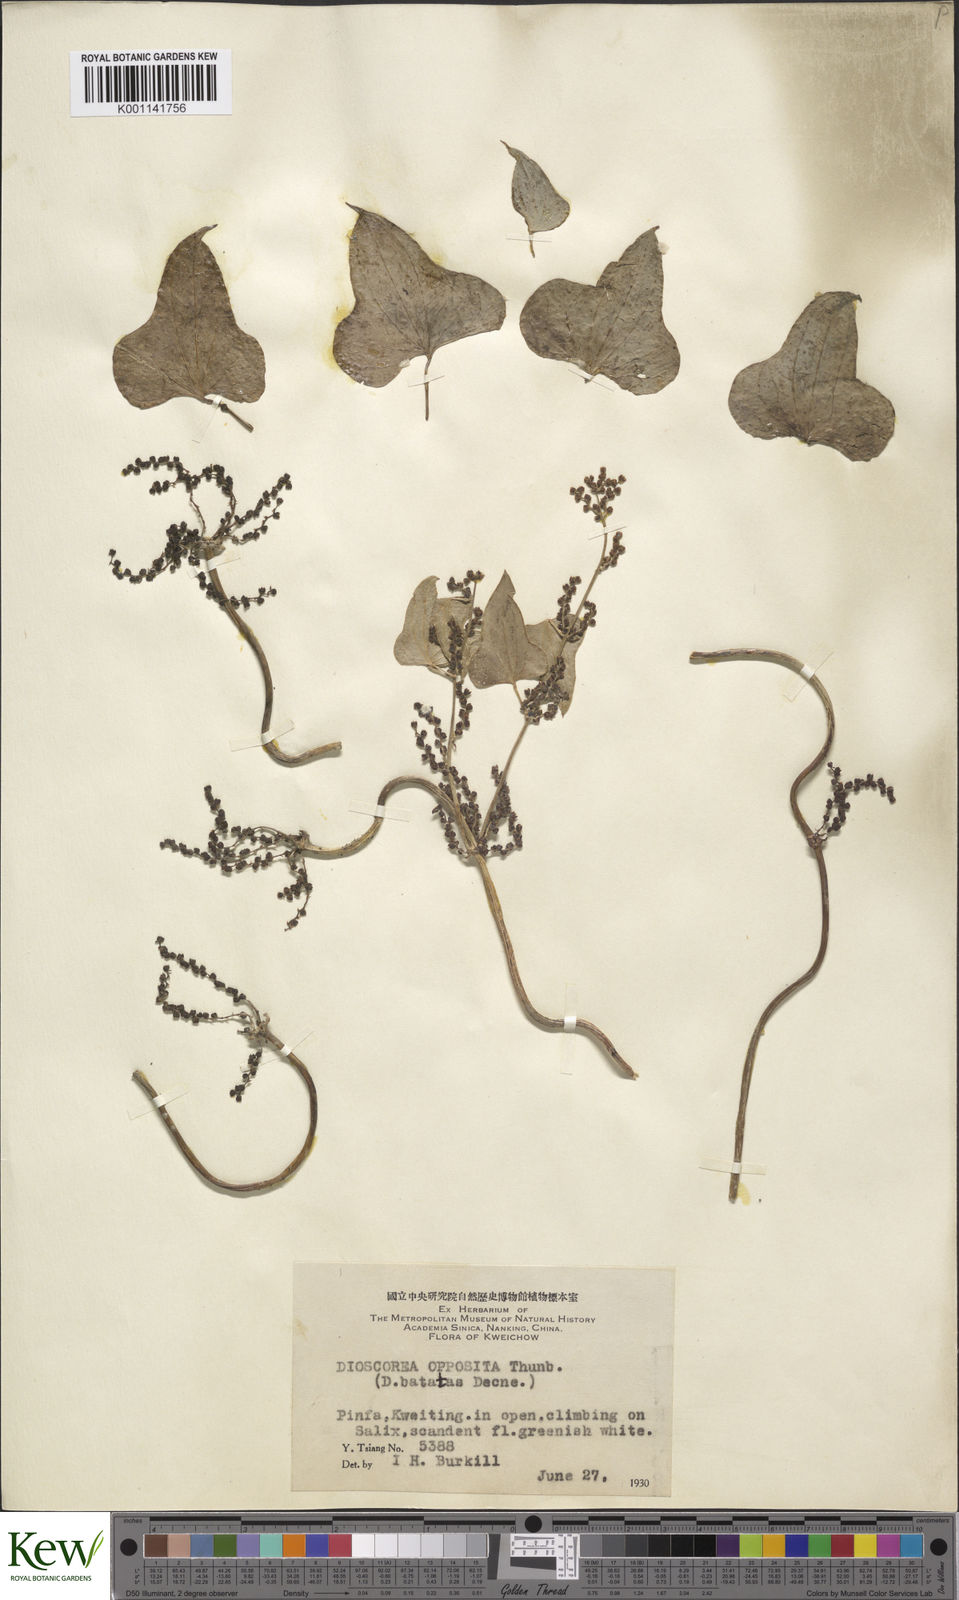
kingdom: Plantae
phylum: Tracheophyta
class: Liliopsida
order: Dioscoreales
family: Dioscoreaceae
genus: Dioscorea
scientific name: Dioscorea oppositifolia
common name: Chinese yam
